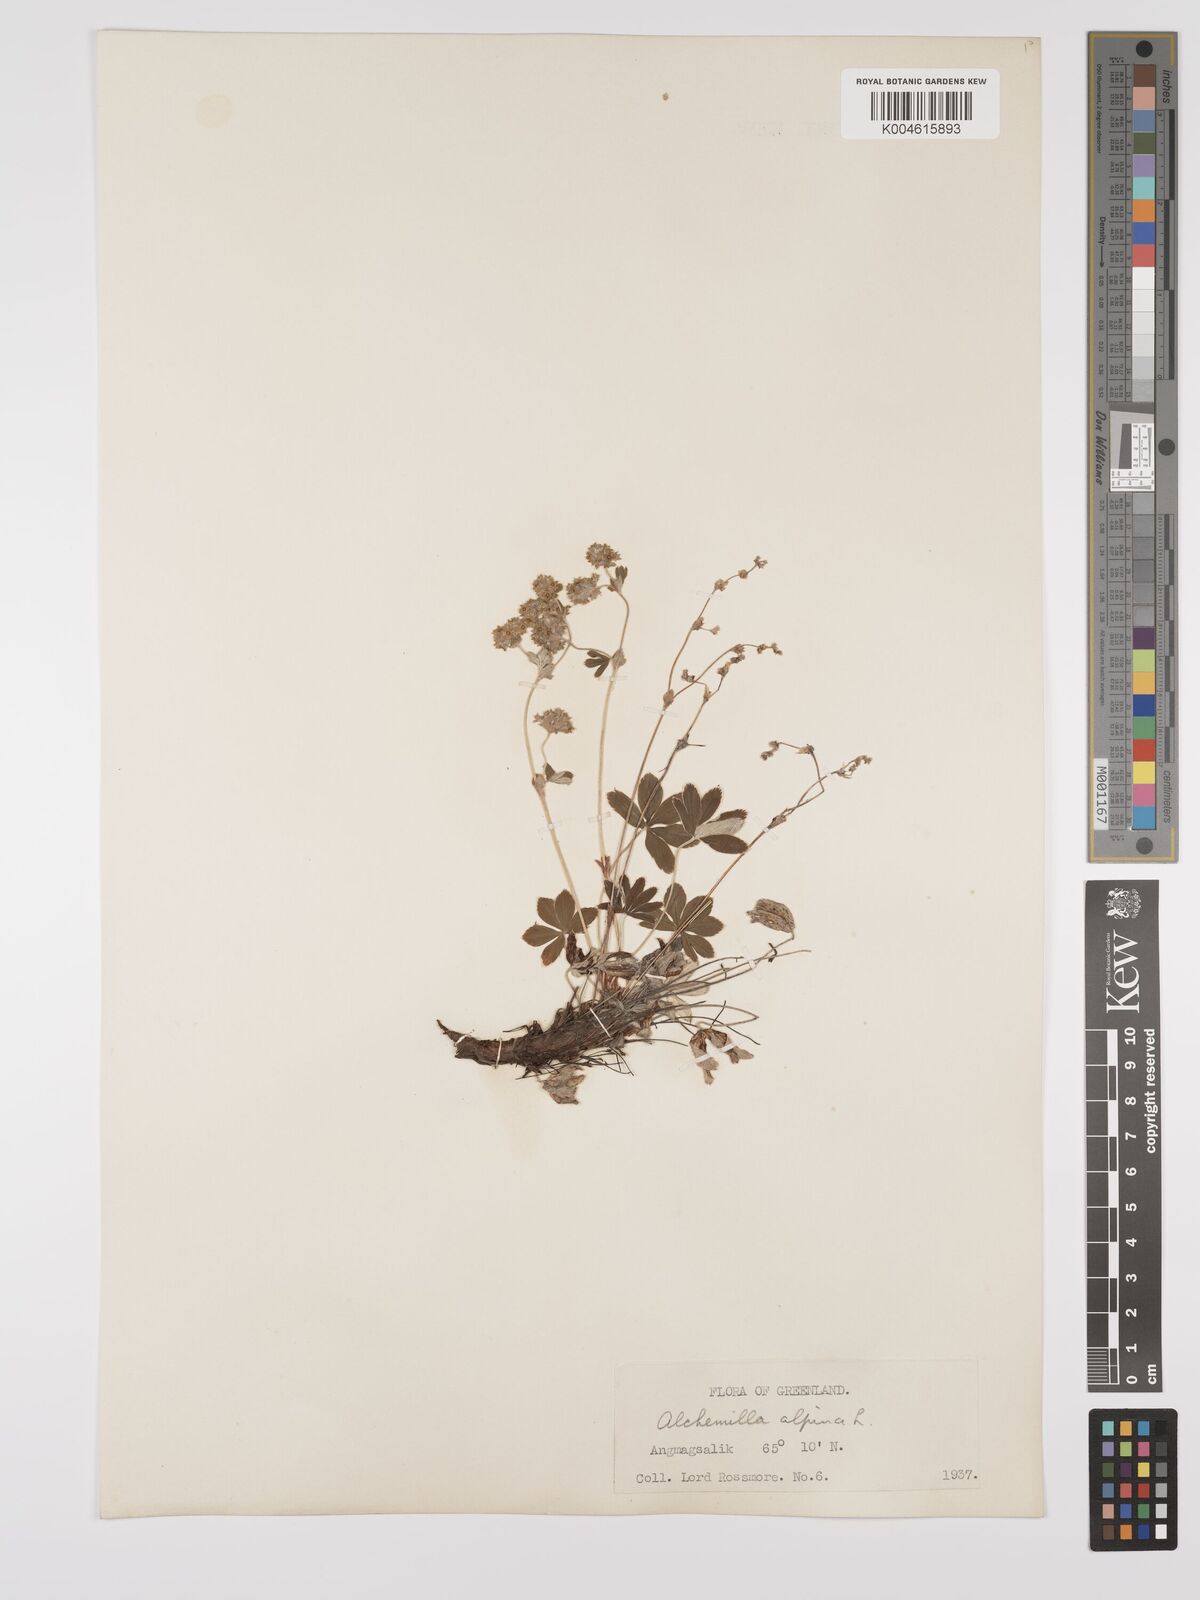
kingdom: Plantae
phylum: Tracheophyta
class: Magnoliopsida
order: Rosales
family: Rosaceae
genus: Alchemilla
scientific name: Alchemilla alpina
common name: Alpine lady's-mantle
